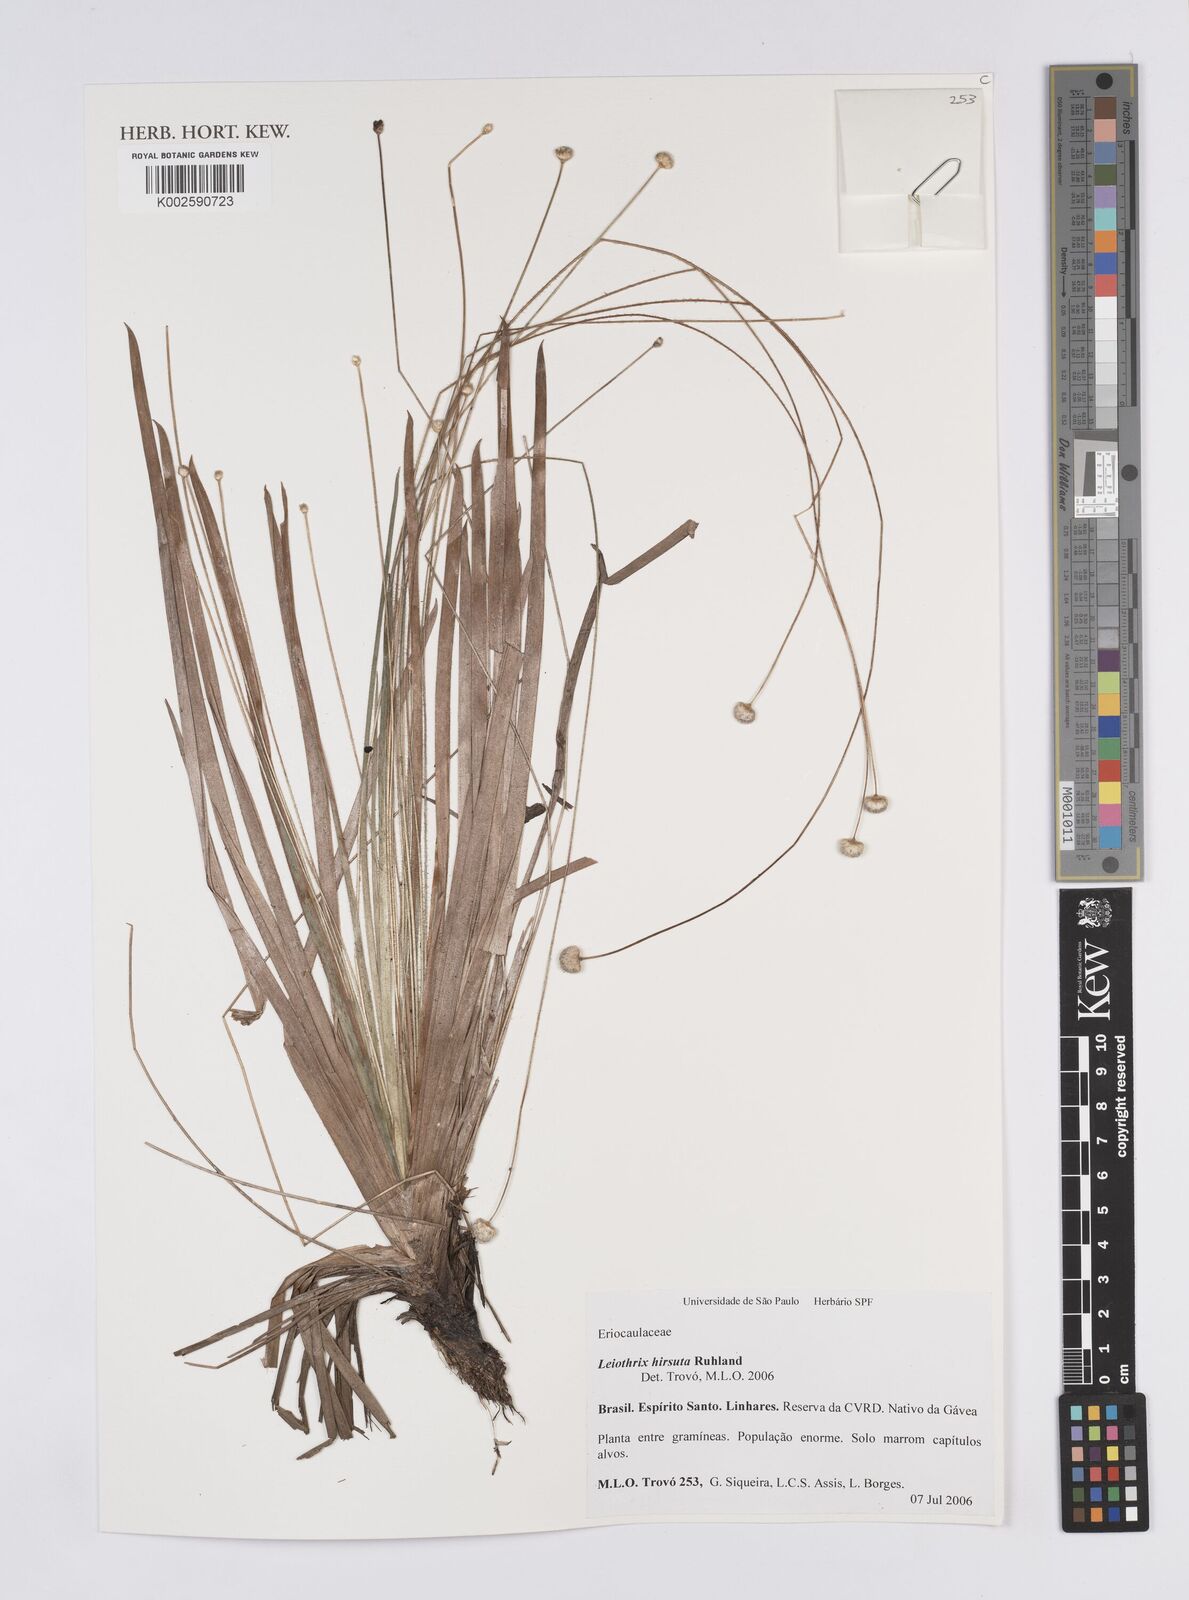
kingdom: Plantae
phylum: Tracheophyta
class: Liliopsida
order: Poales
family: Eriocaulaceae
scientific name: Eriocaulaceae
